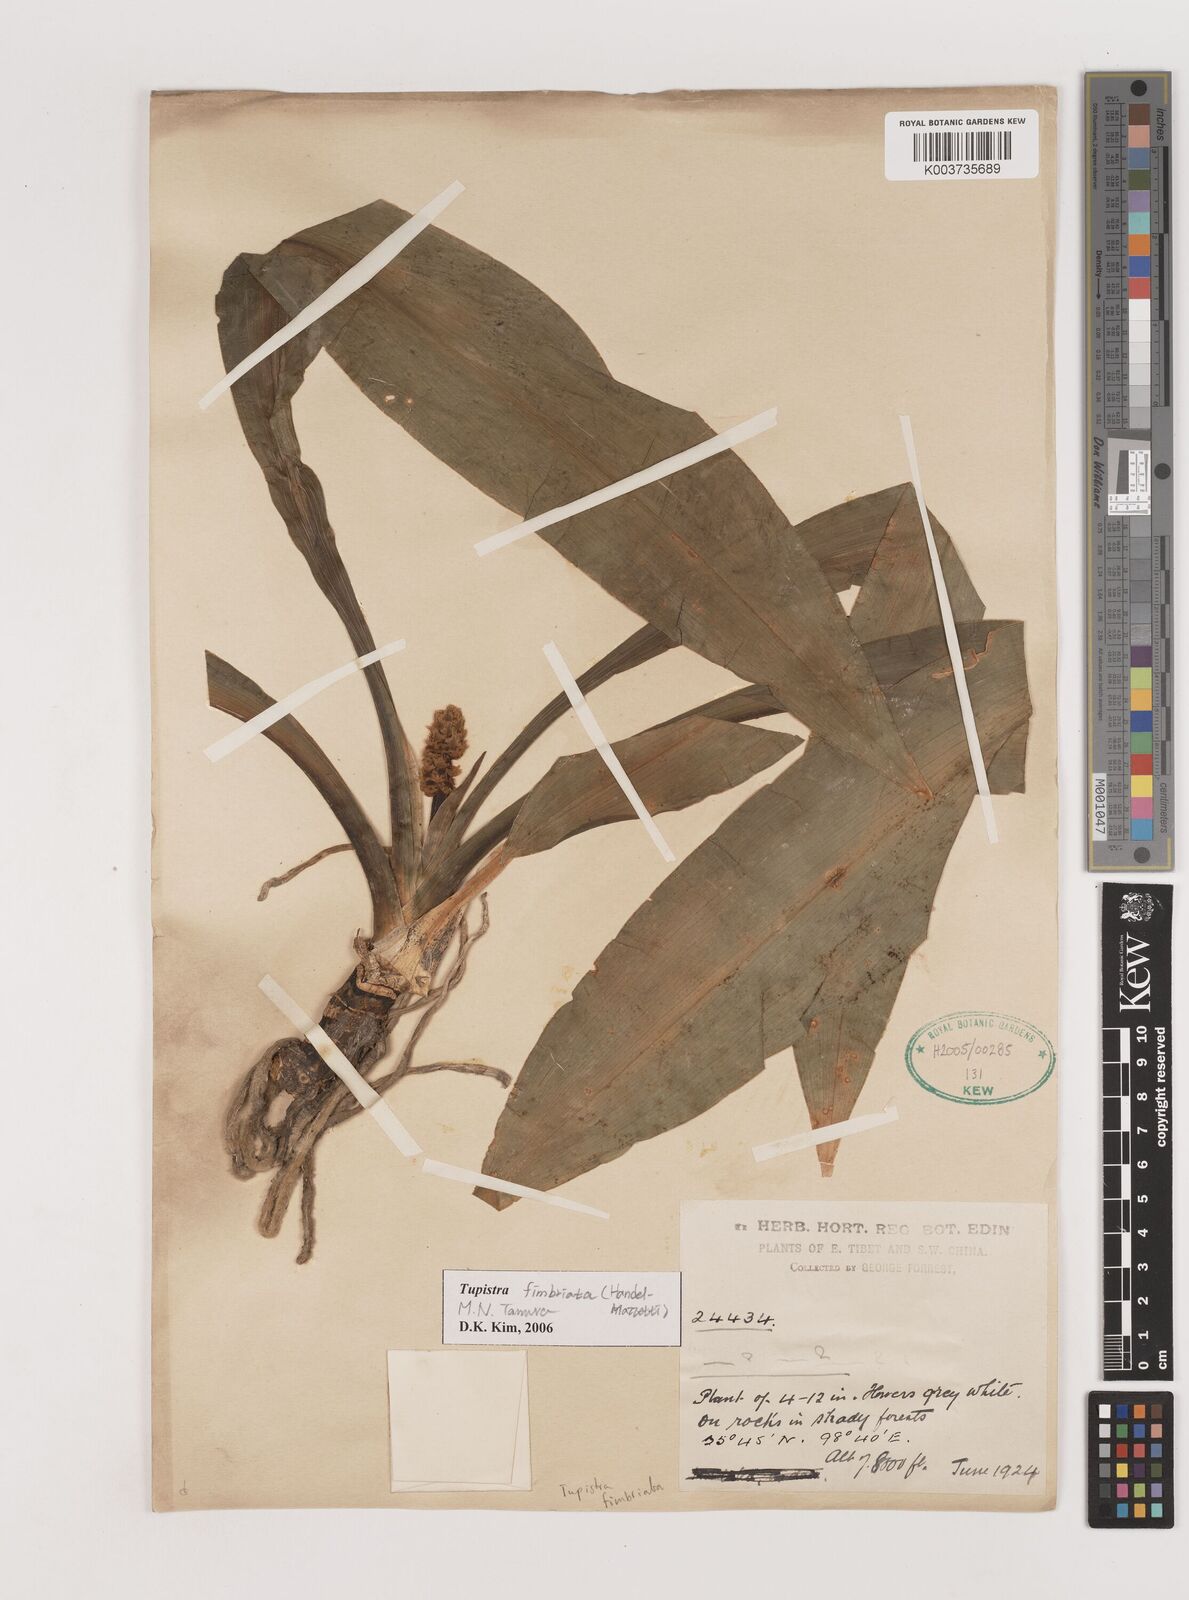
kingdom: Plantae
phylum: Tracheophyta
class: Liliopsida
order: Asparagales
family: Asparagaceae
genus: Rohdea
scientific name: Rohdea delavayi
